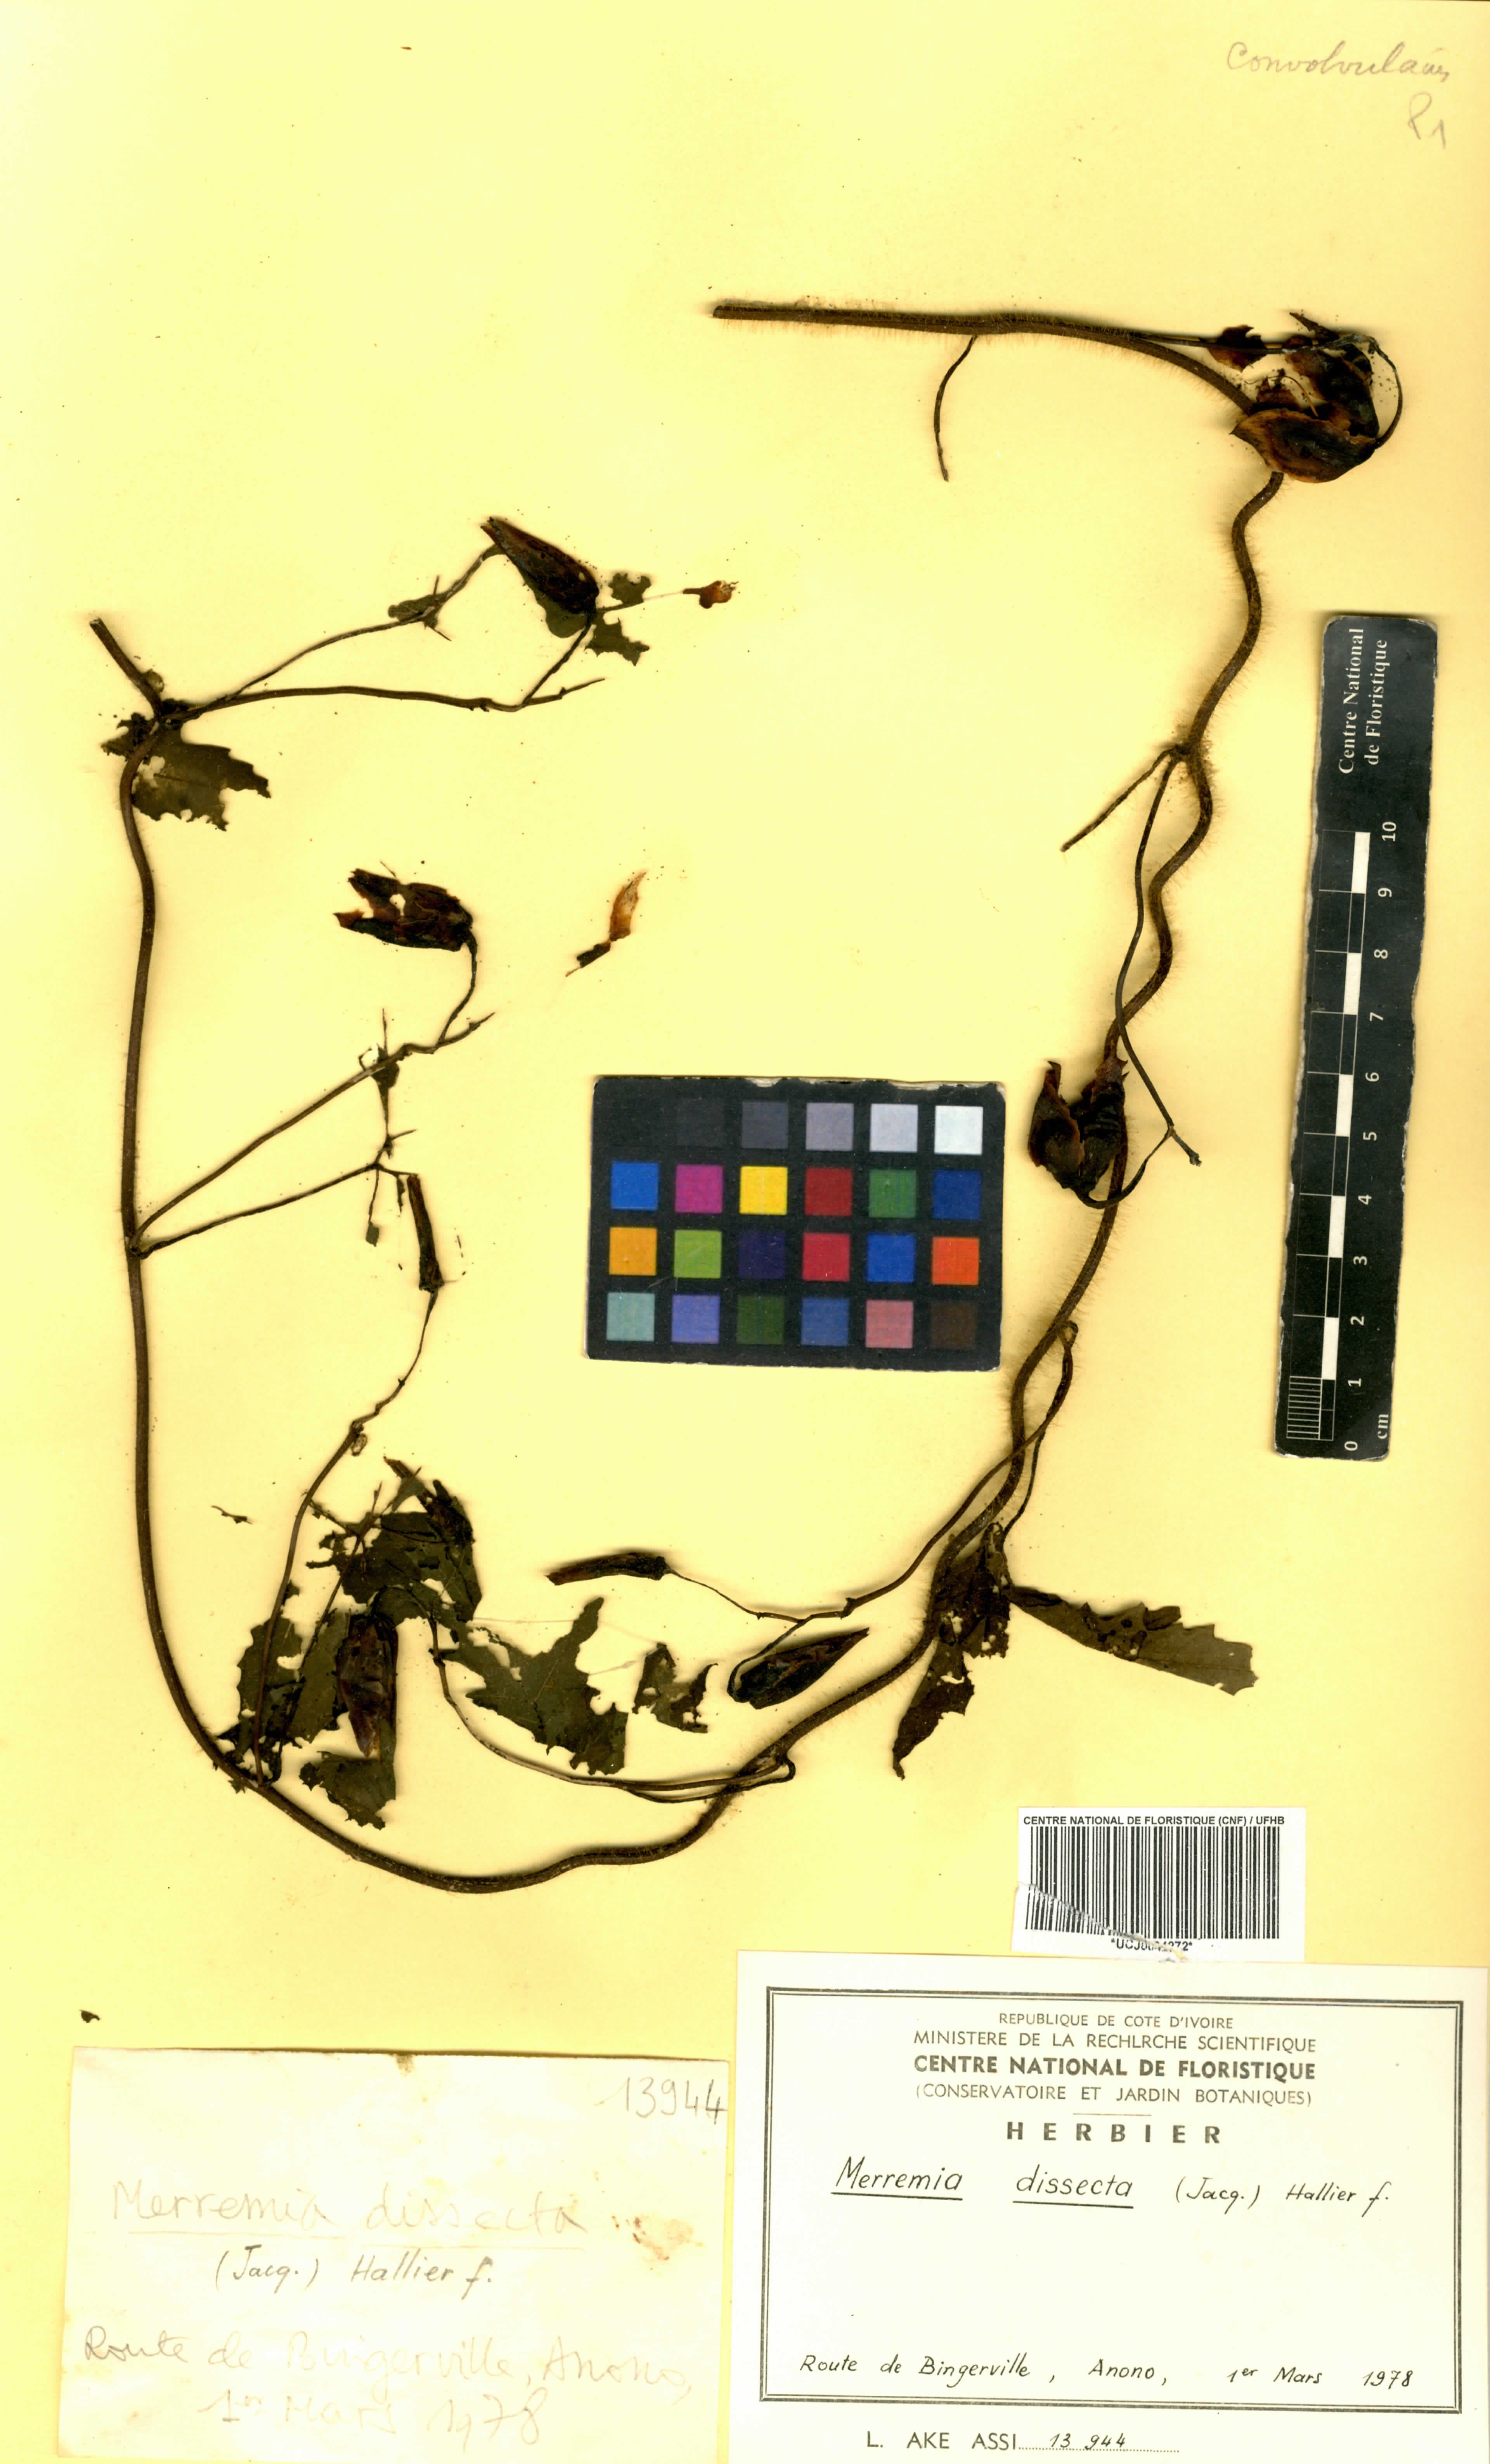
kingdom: Plantae
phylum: Tracheophyta
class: Magnoliopsida
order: Solanales
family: Convolvulaceae
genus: Distimake
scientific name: Distimake dissectus
